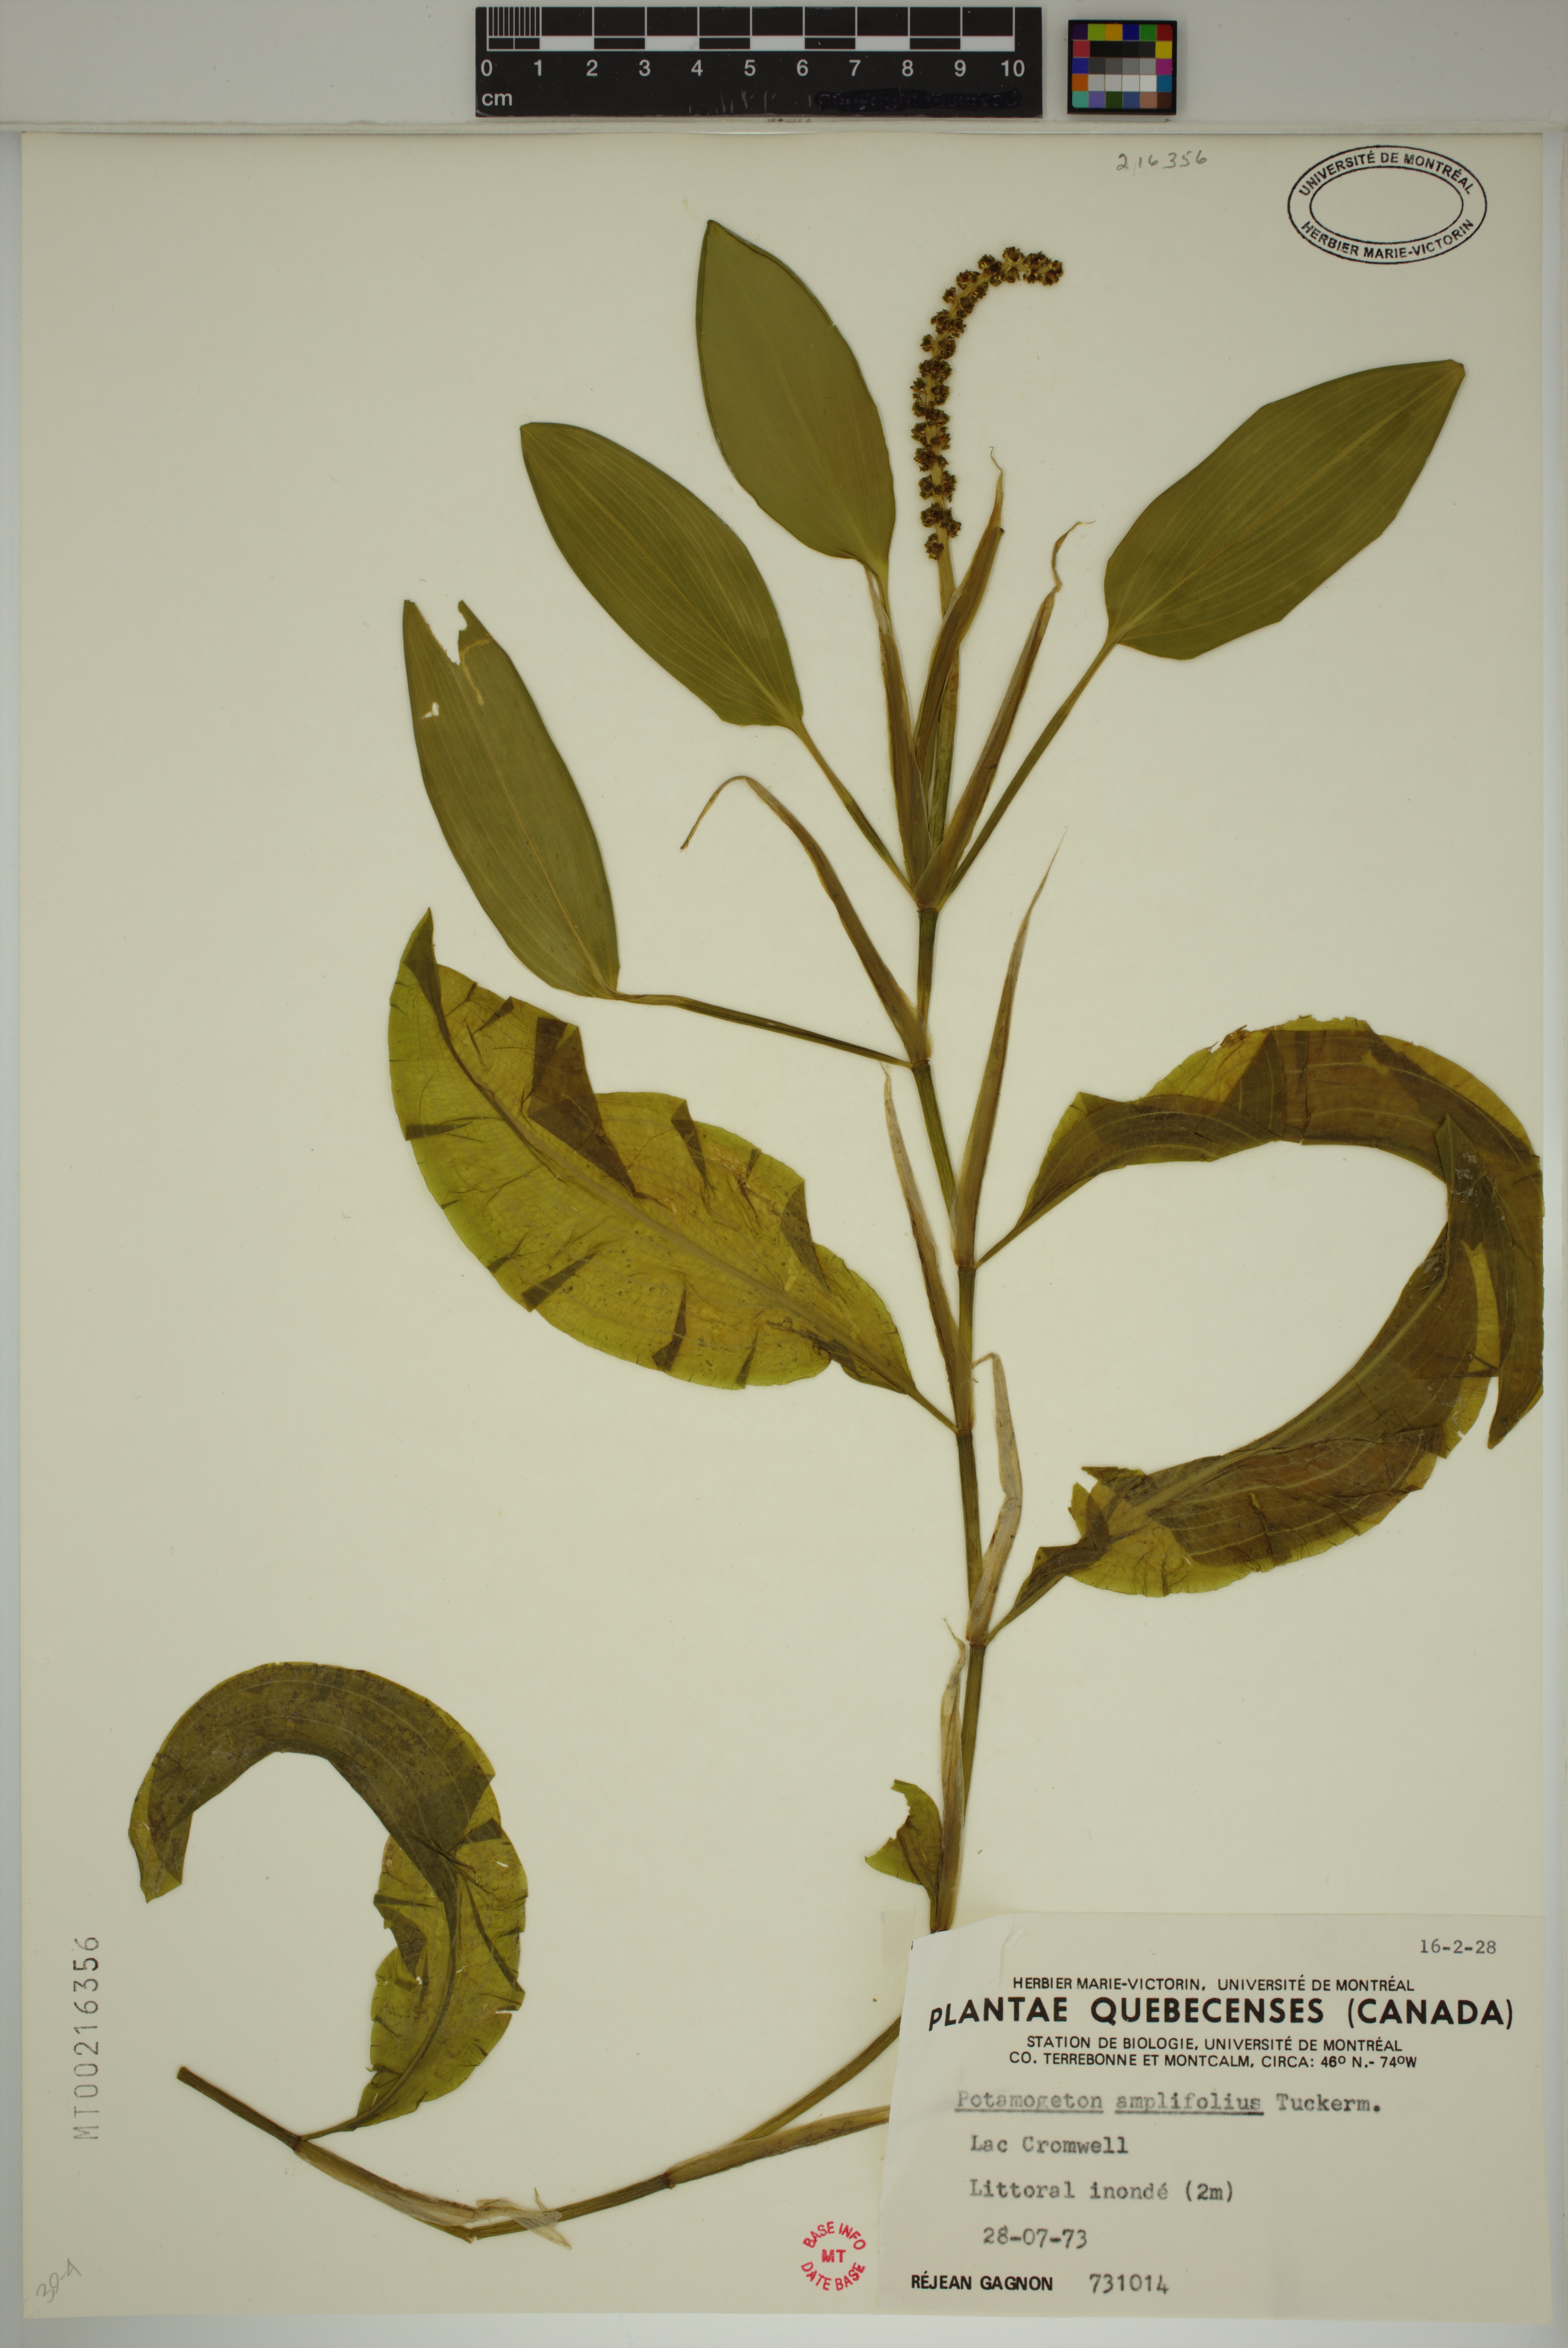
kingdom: Plantae
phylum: Tracheophyta
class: Liliopsida
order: Alismatales
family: Potamogetonaceae
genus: Potamogeton
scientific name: Potamogeton amplifolius
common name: Broad-leaved pondweed
